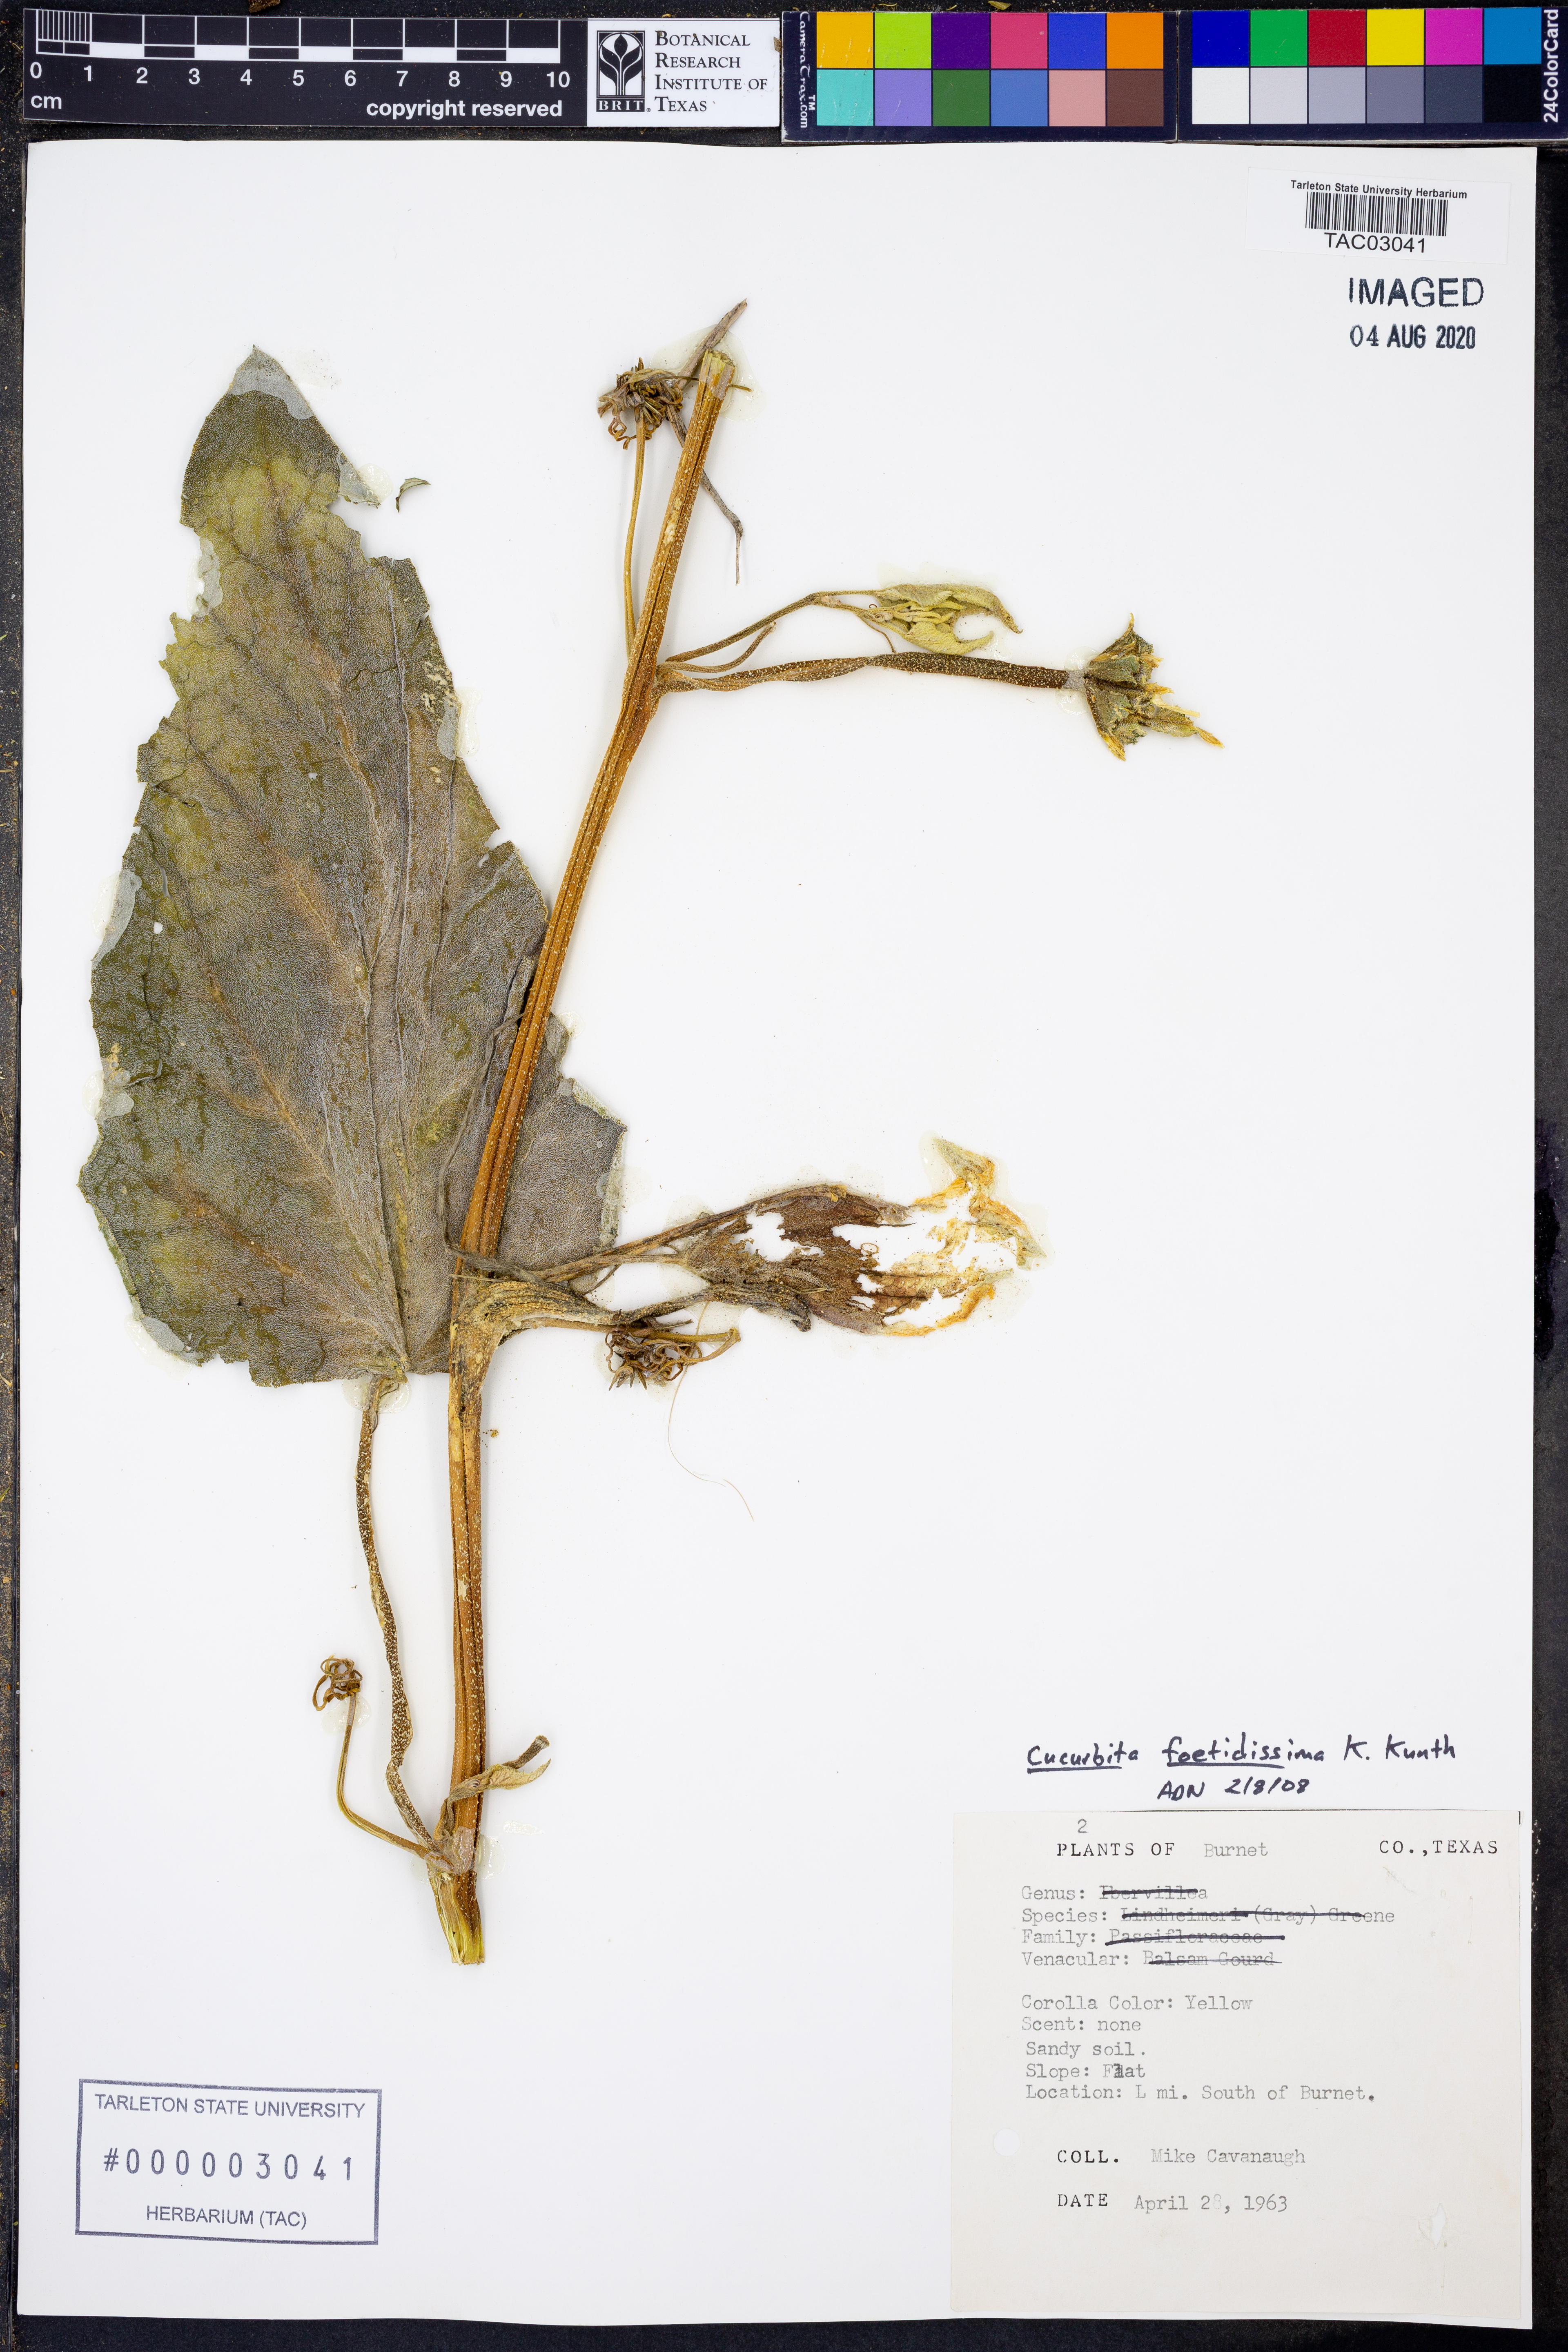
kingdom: Plantae
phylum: Tracheophyta
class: Magnoliopsida
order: Cucurbitales
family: Cucurbitaceae
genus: Cucurbita
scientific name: Cucurbita foetidissima
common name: Buffalo gourd
